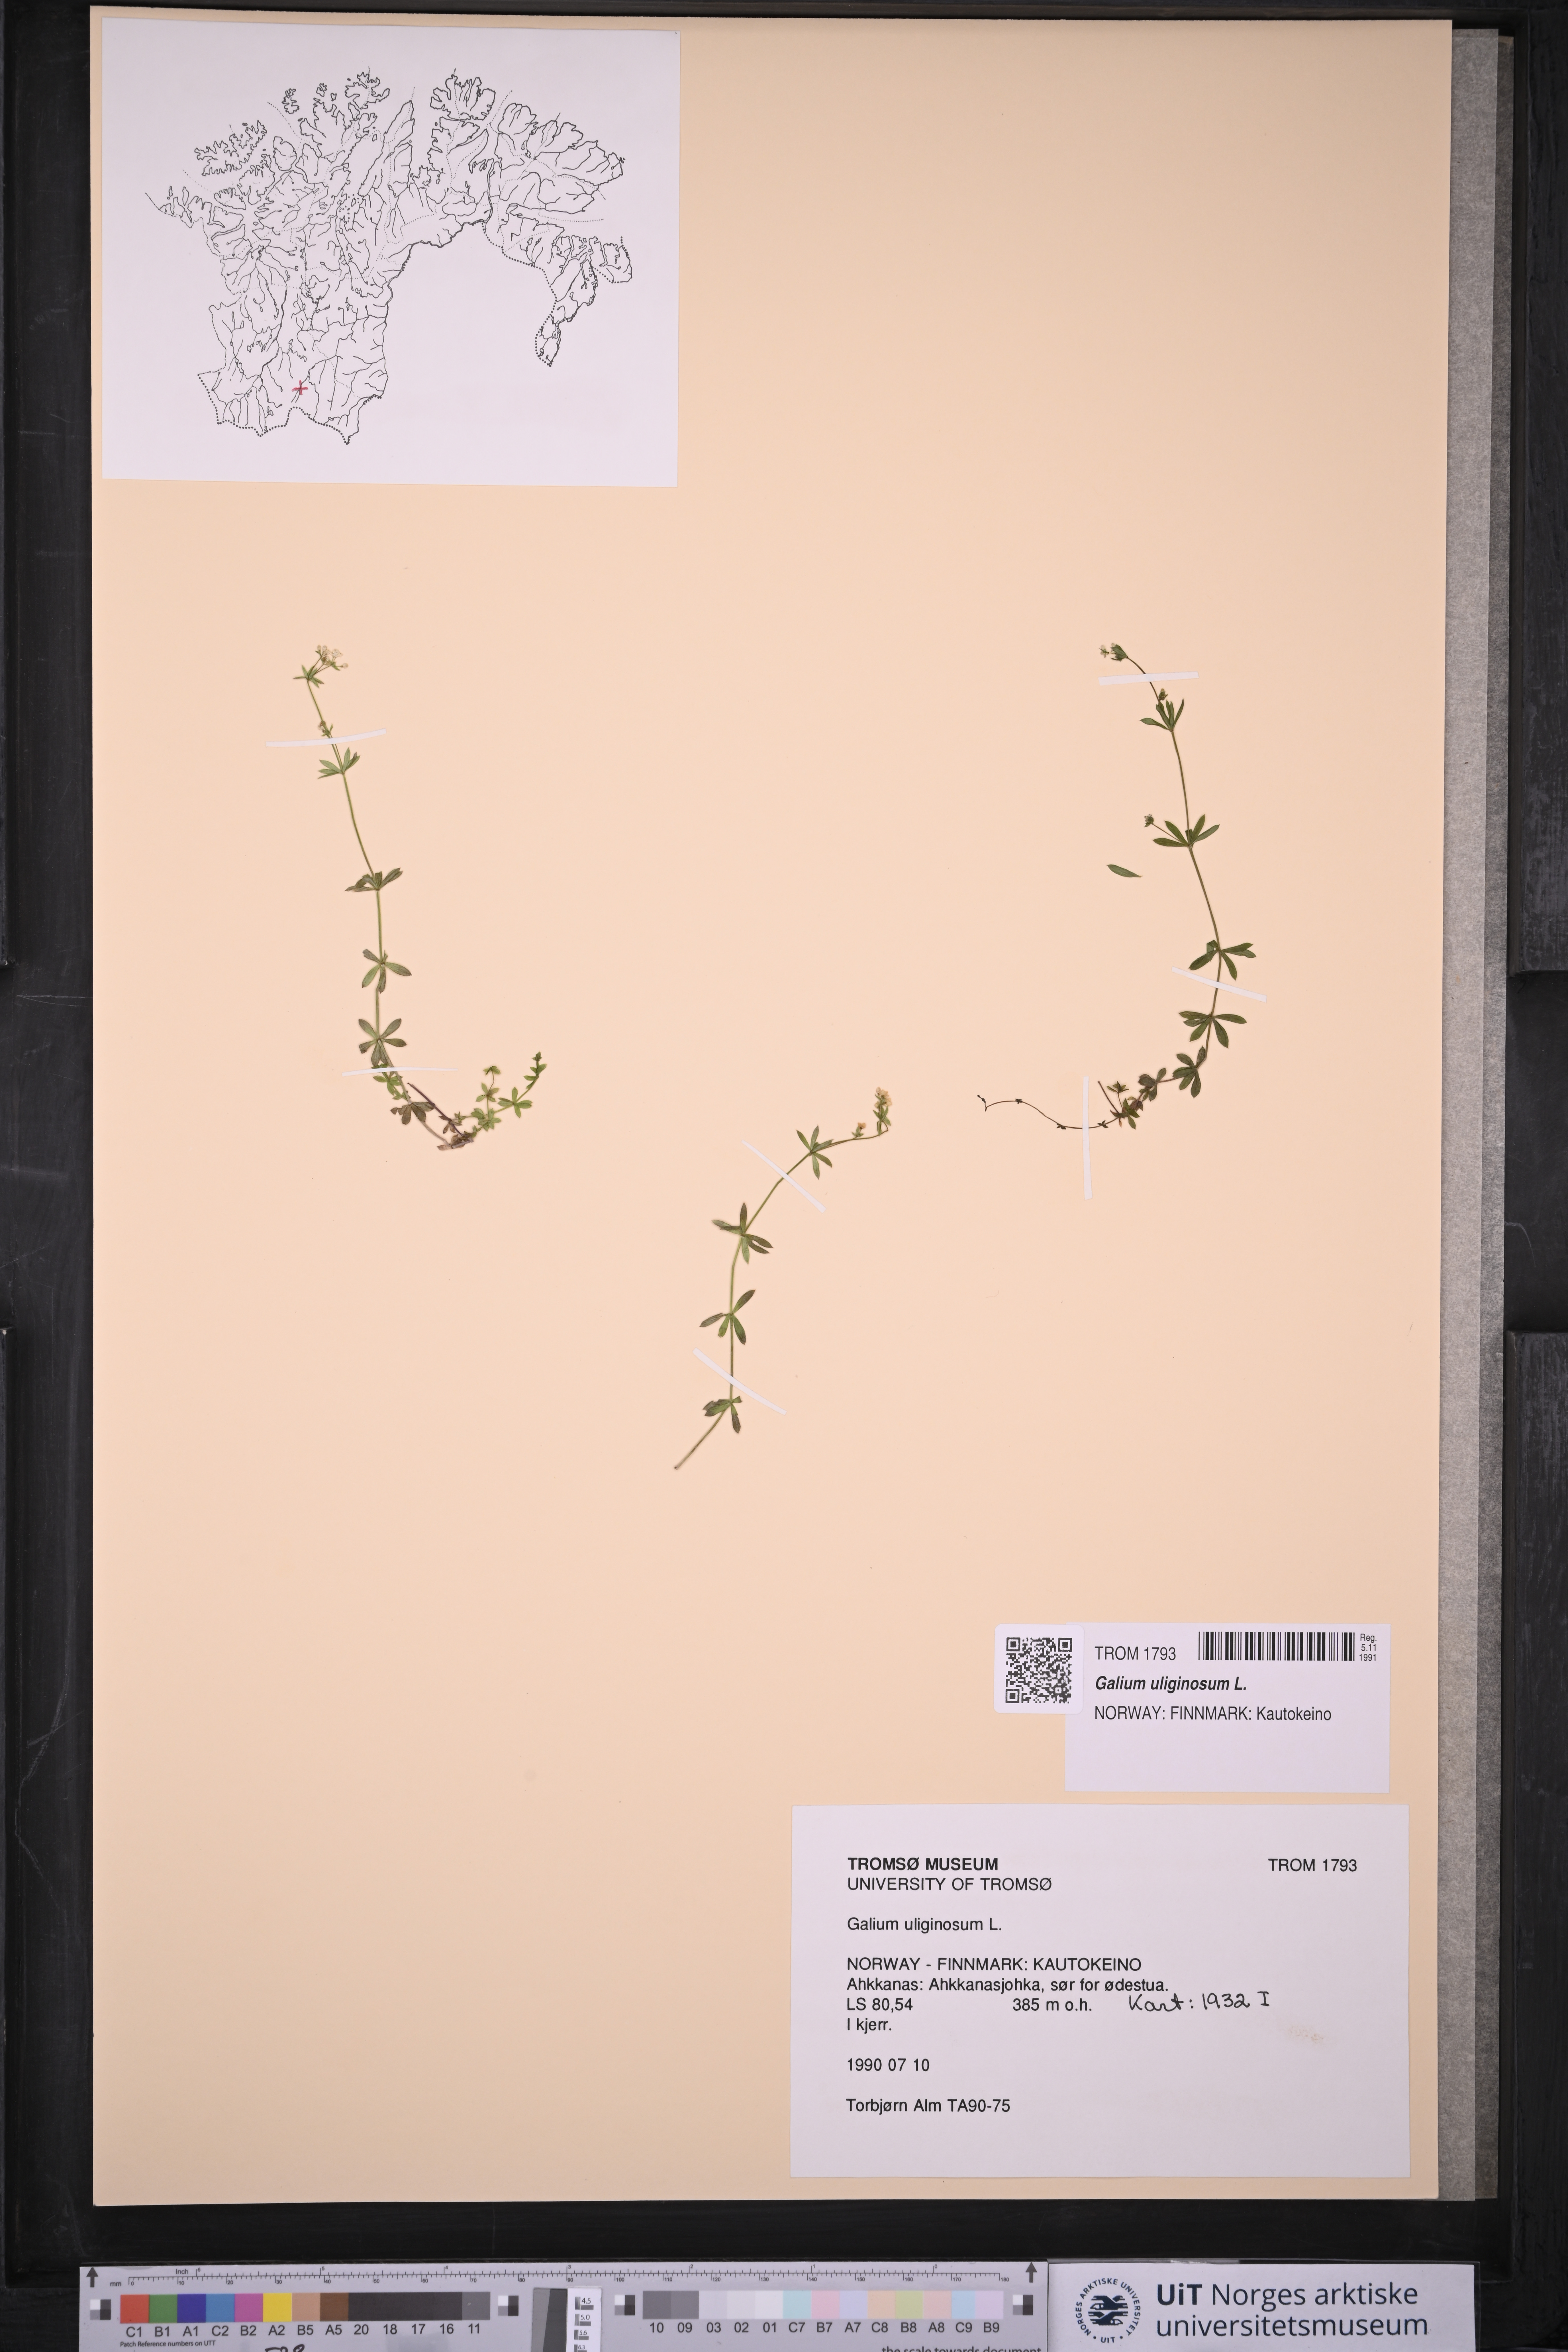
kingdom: Plantae
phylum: Tracheophyta
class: Magnoliopsida
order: Gentianales
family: Rubiaceae
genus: Galium
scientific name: Galium uliginosum
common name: Fen bedstraw
